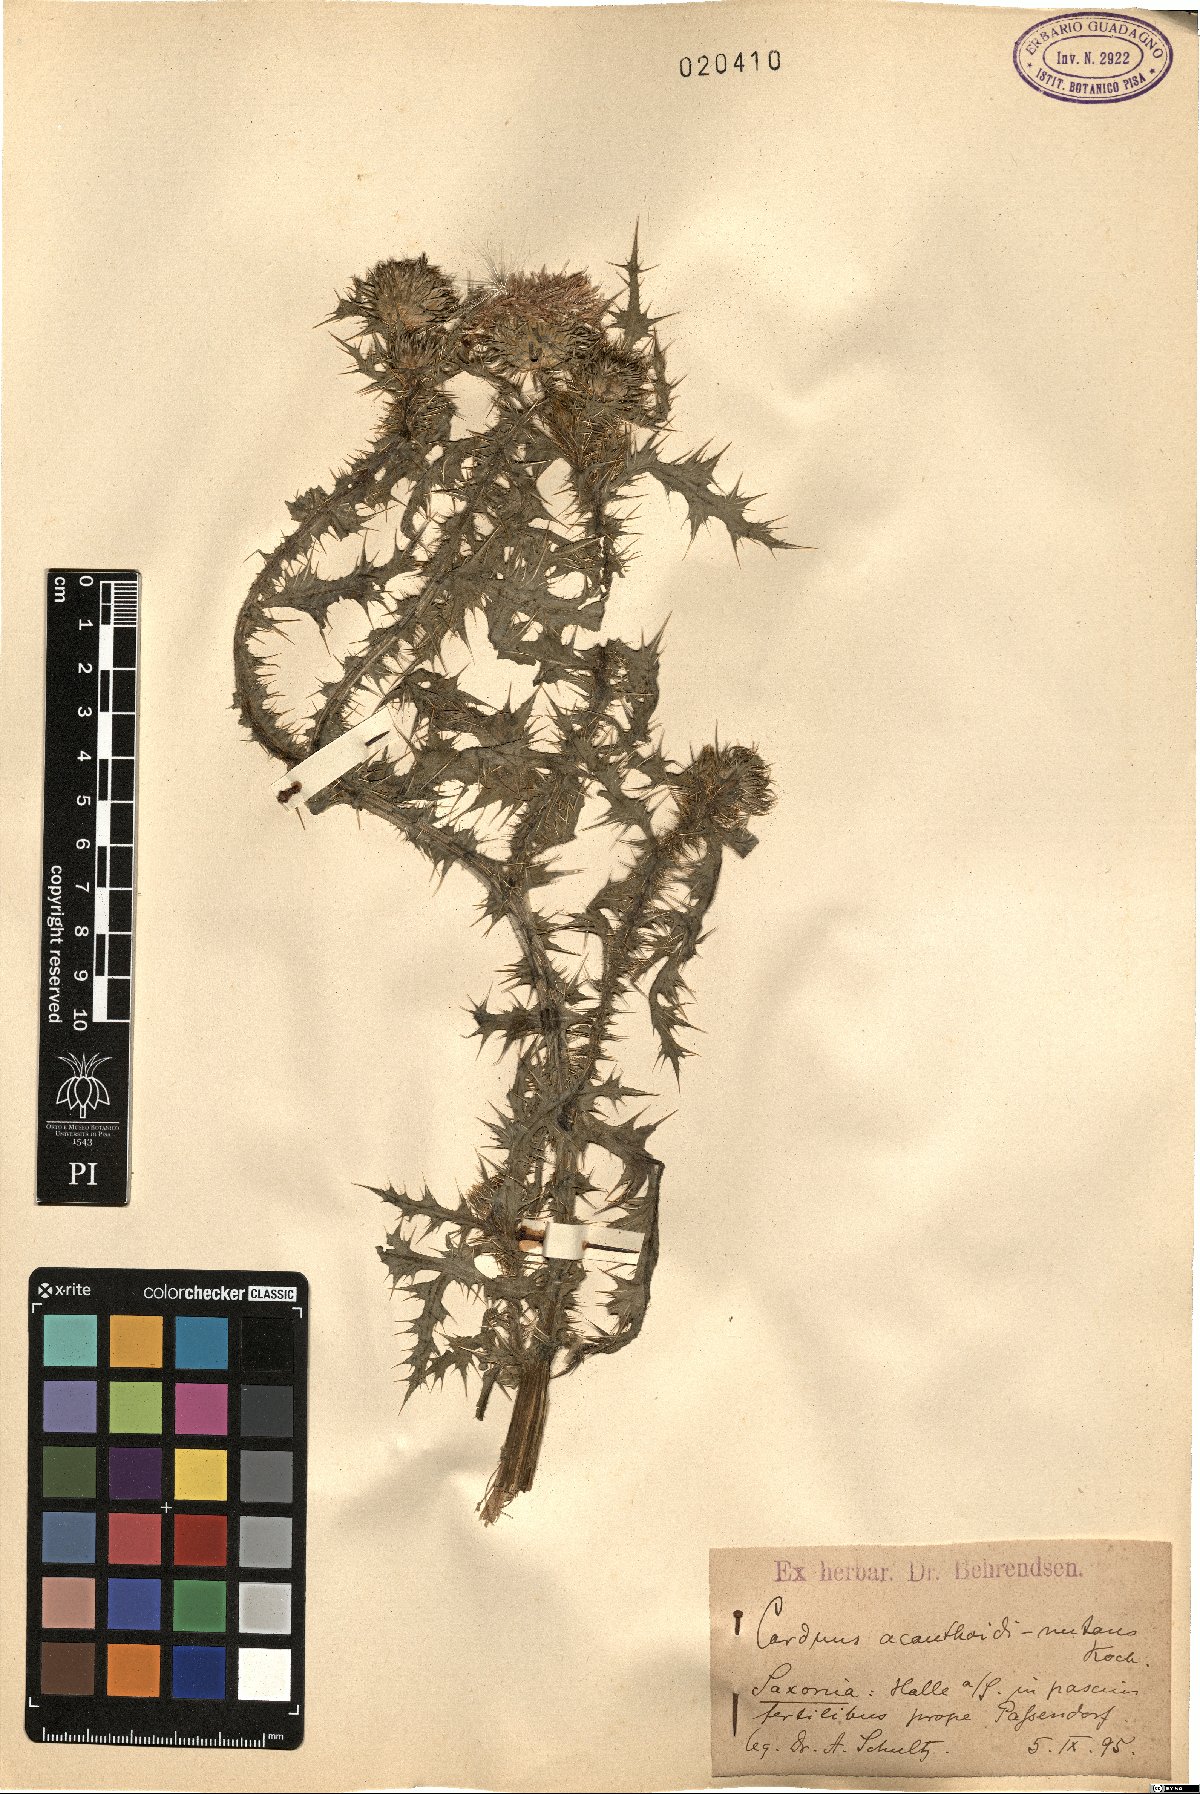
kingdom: Plantae
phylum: Tracheophyta
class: Magnoliopsida
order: Asterales
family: Asteraceae
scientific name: Asteraceae
